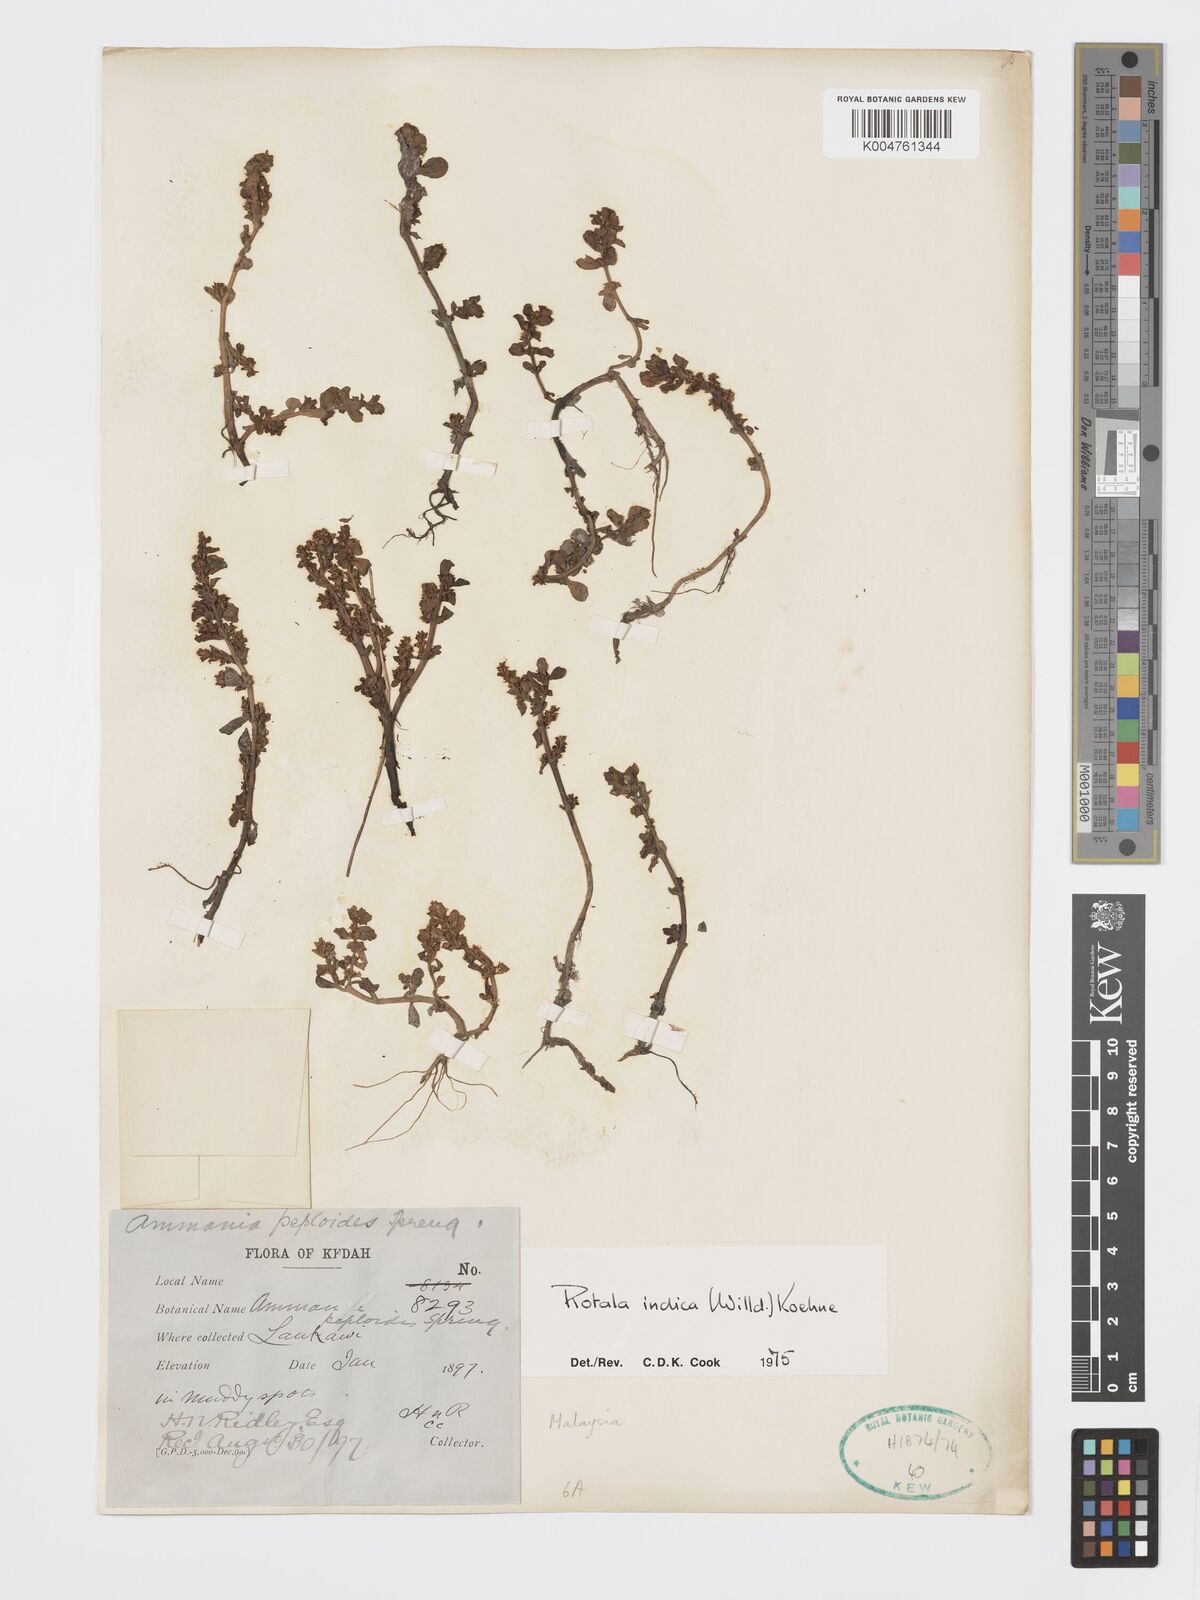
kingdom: Plantae
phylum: Tracheophyta
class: Magnoliopsida
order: Myrtales
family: Lythraceae
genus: Rotala
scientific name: Rotala indica
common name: Indian toothcup
